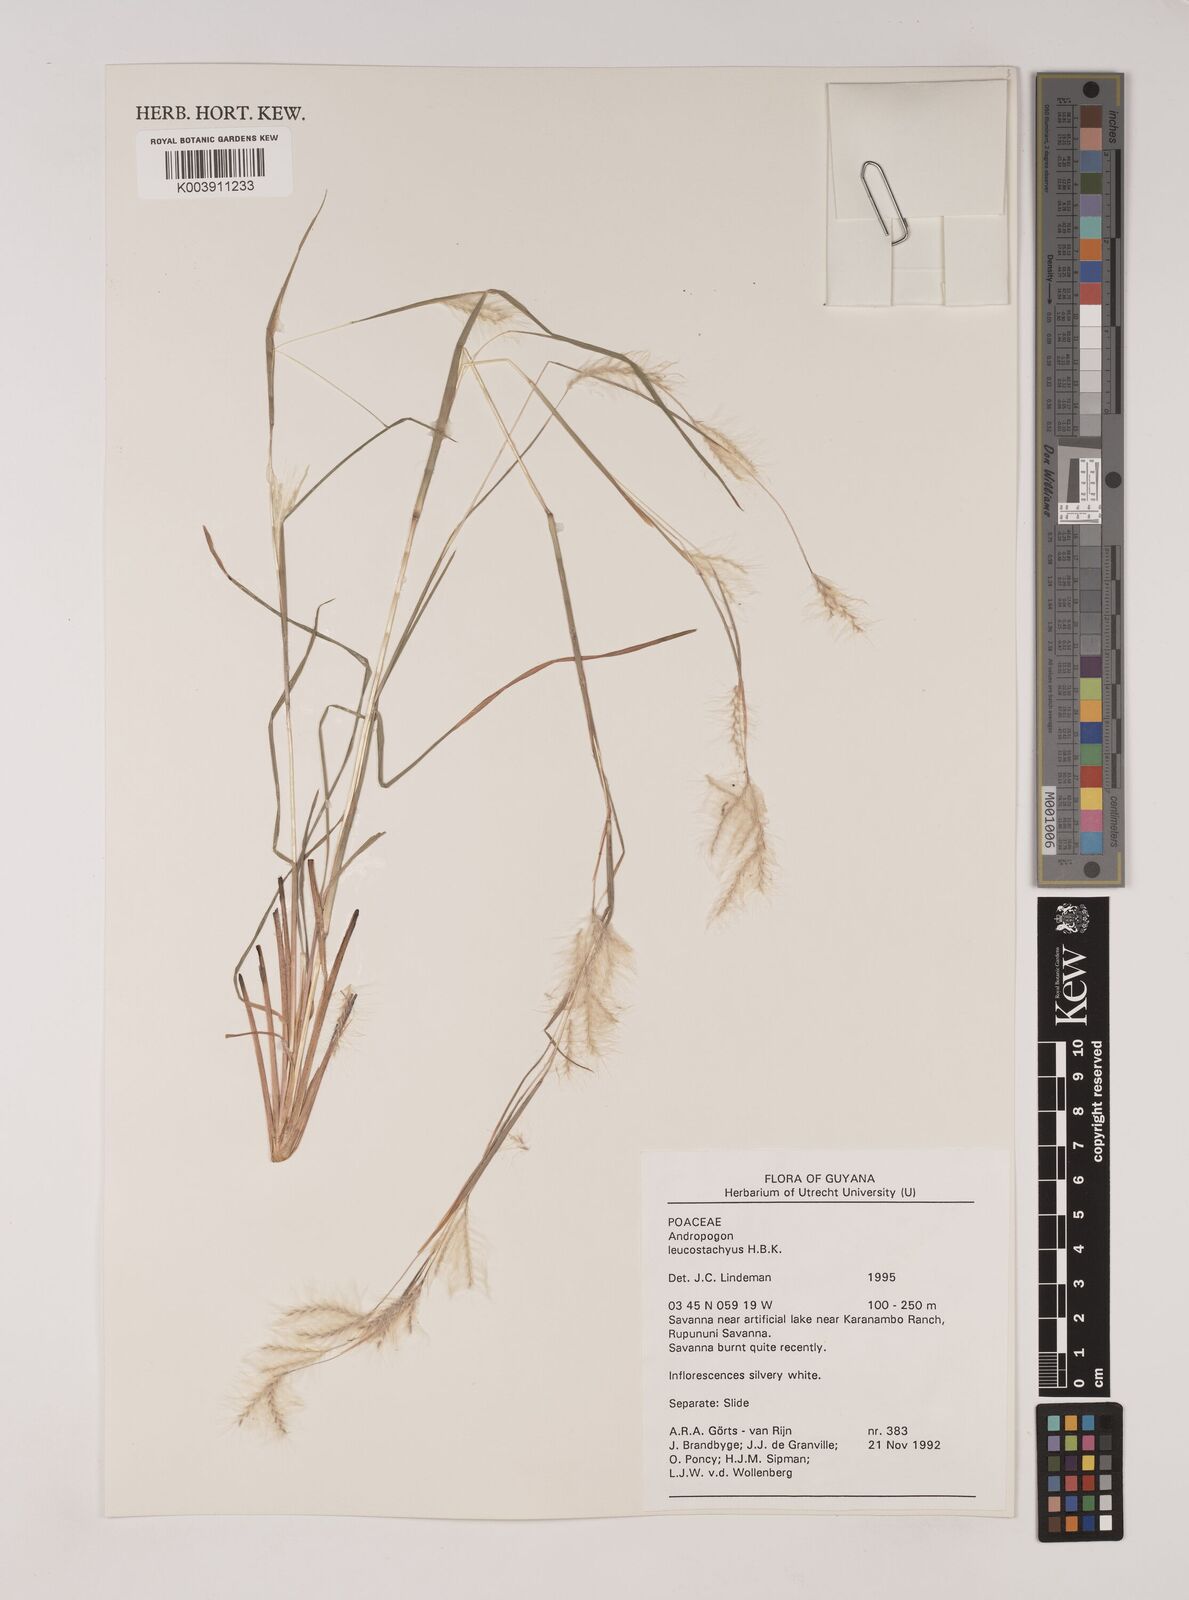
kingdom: Plantae
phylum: Tracheophyta
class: Liliopsida
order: Poales
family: Poaceae
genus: Andropogon
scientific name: Andropogon leucostachyus
